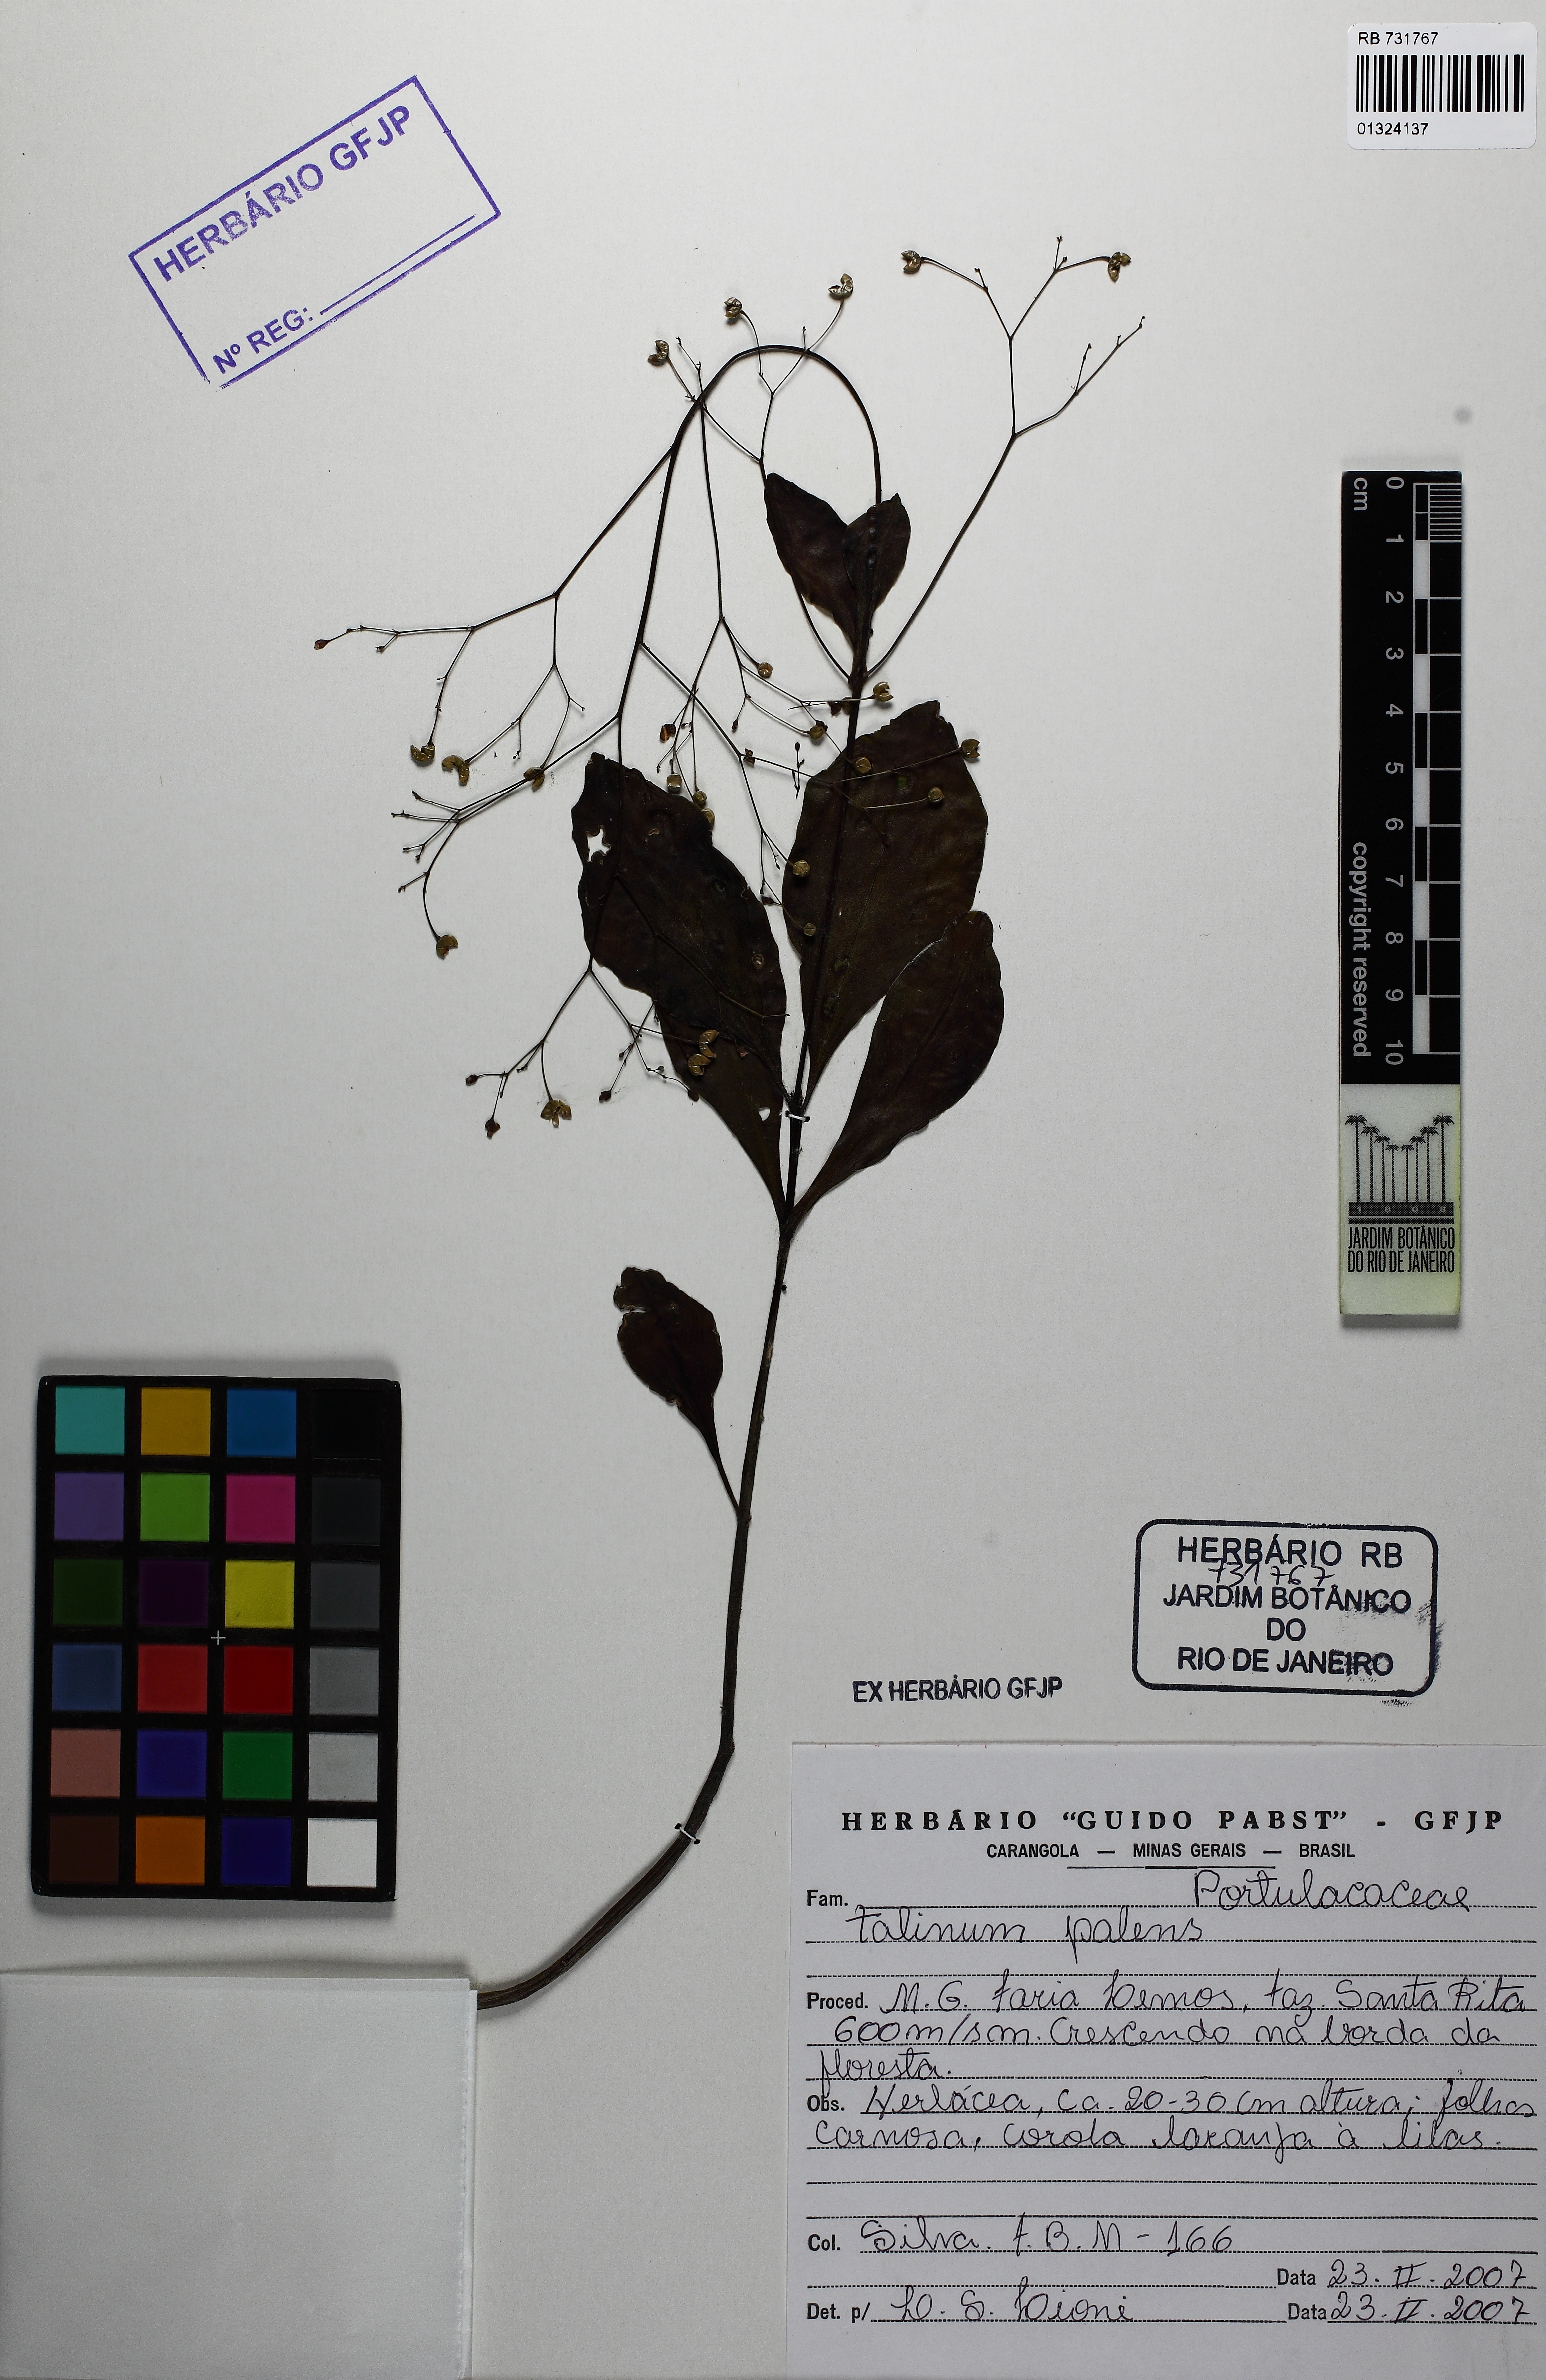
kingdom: Plantae
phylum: Tracheophyta
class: Magnoliopsida
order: Caryophyllales
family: Talinaceae
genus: Talinum
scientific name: Talinum
